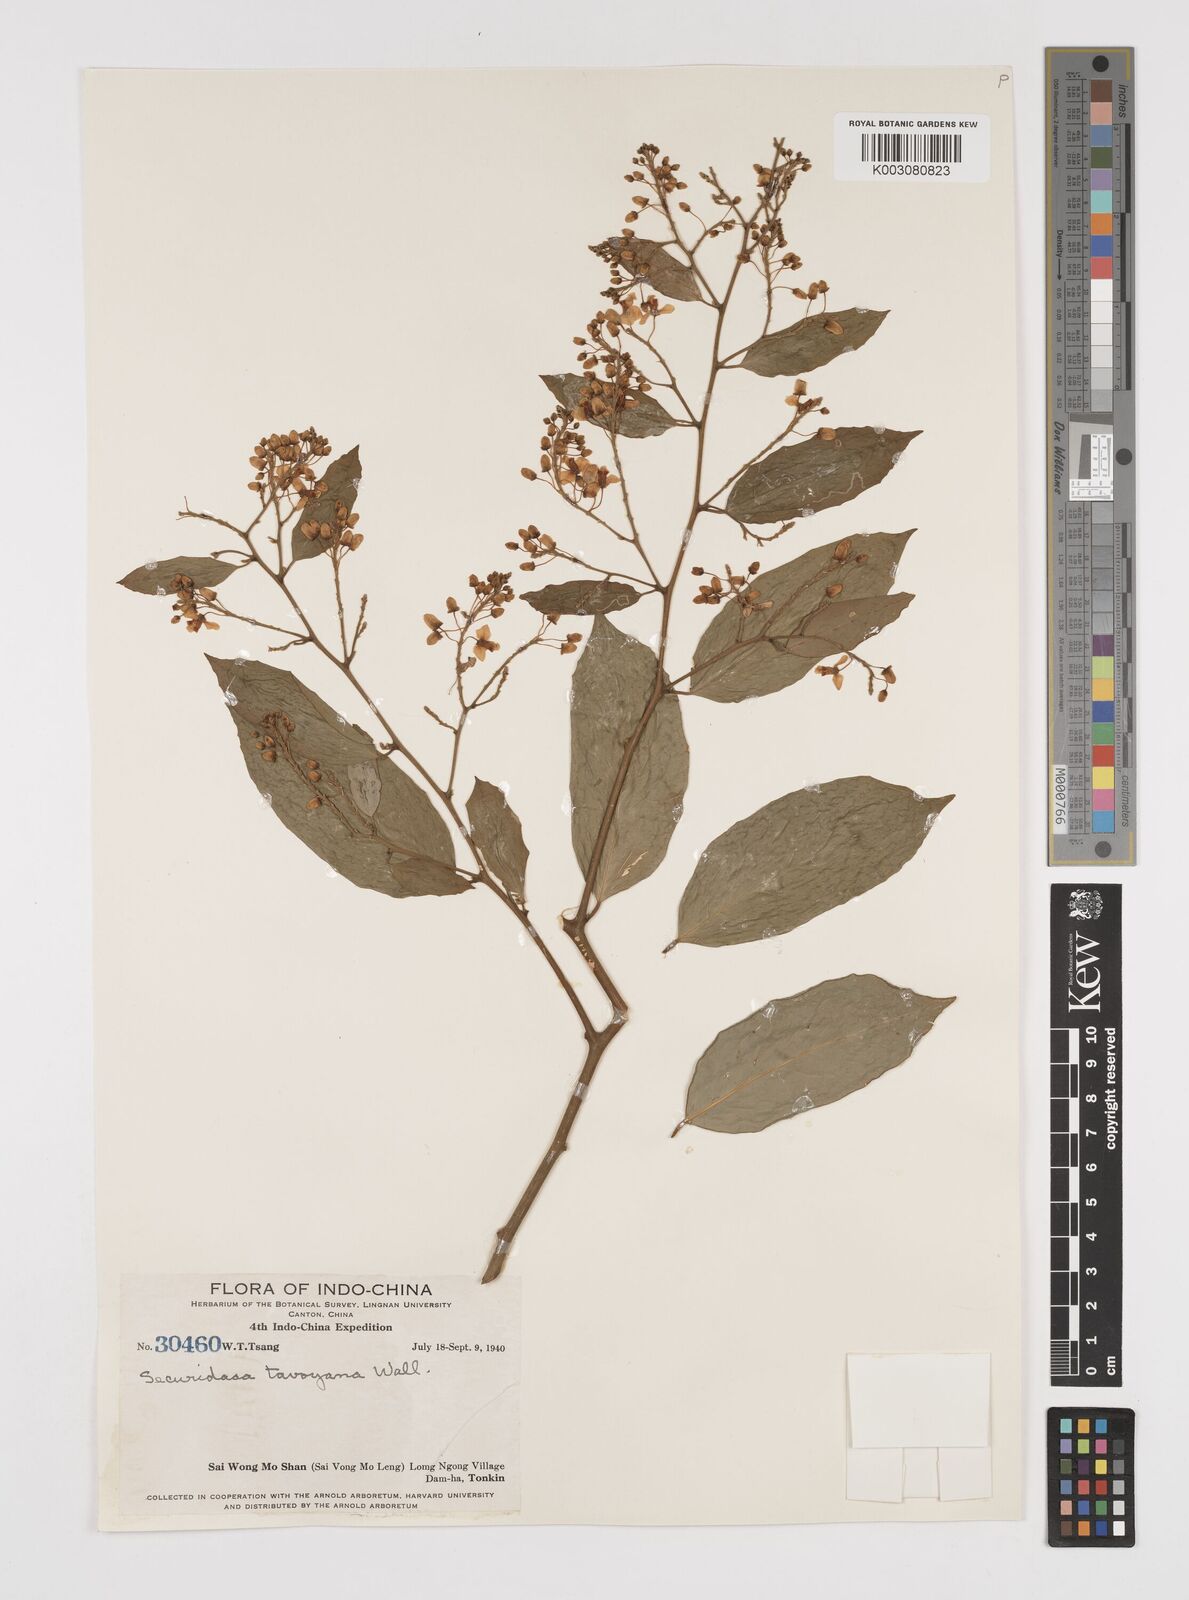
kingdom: Plantae
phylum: Tracheophyta
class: Magnoliopsida
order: Fabales
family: Polygalaceae
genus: Securidaca
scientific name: Securidaca inappendiculata
